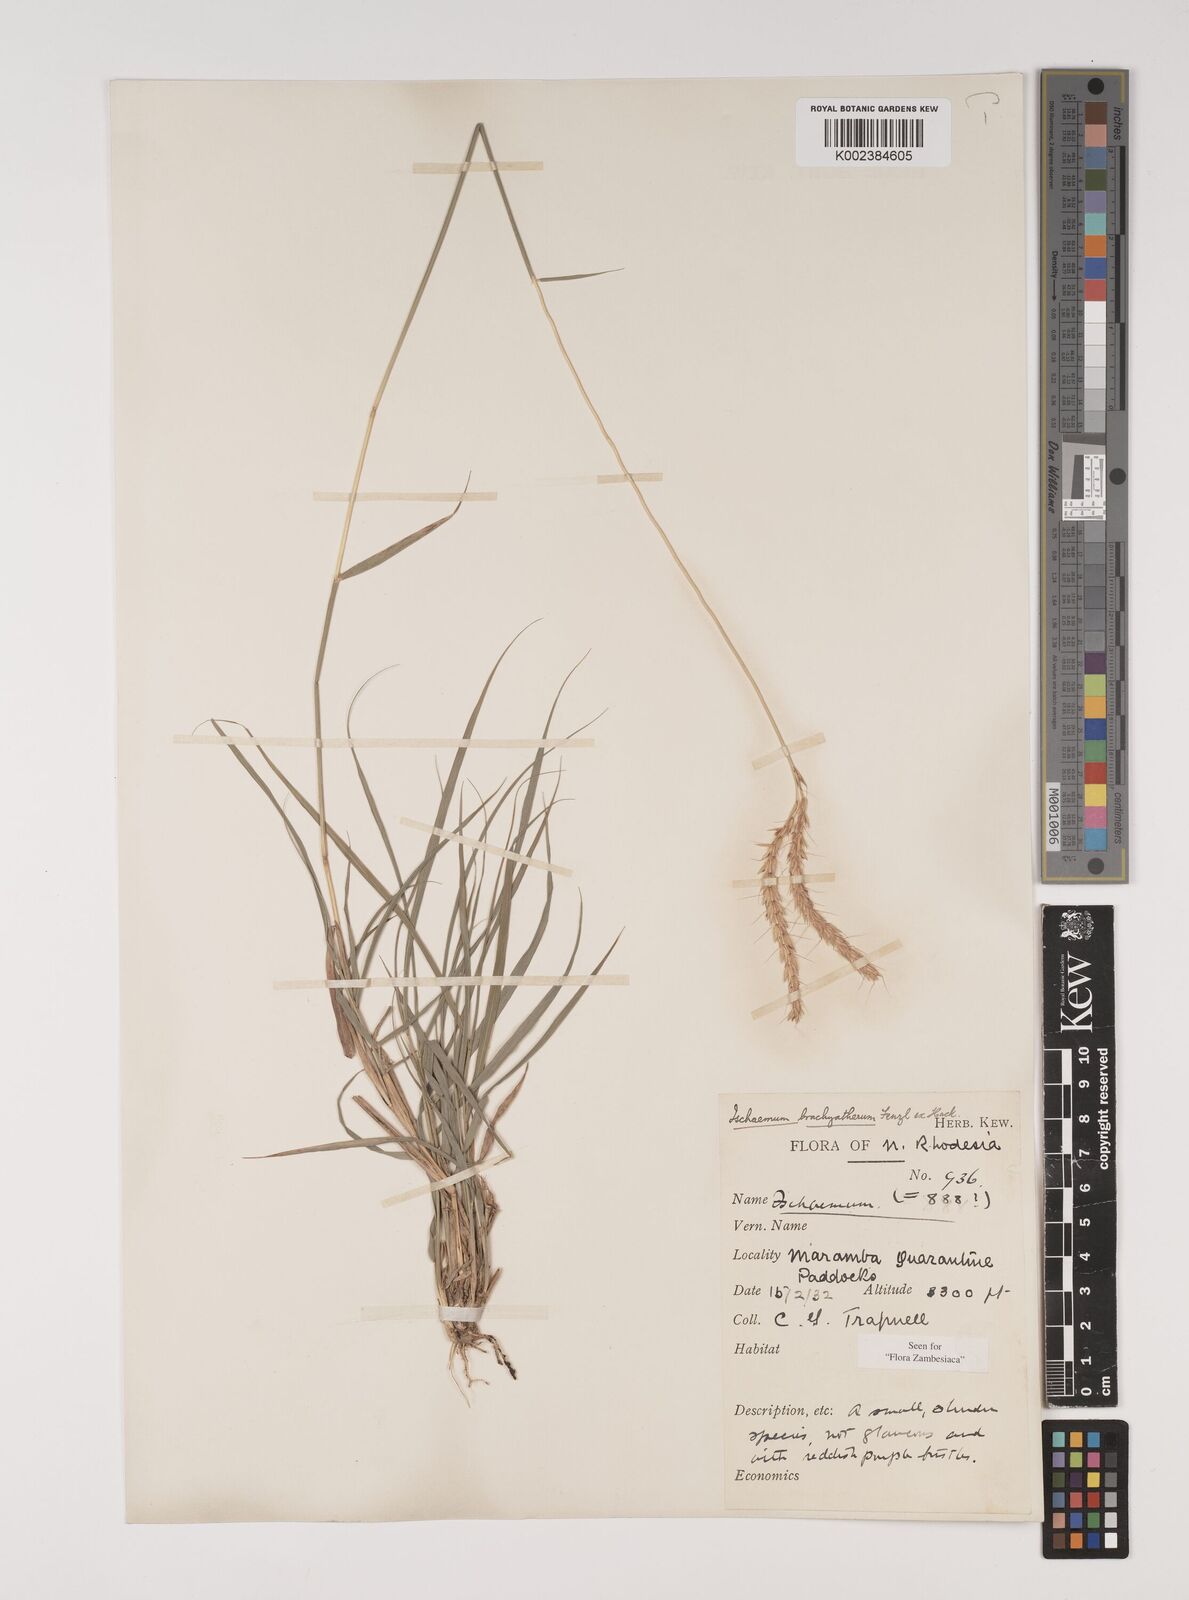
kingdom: Plantae
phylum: Tracheophyta
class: Liliopsida
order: Poales
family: Poaceae
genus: Ischaemum
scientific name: Ischaemum afrum
